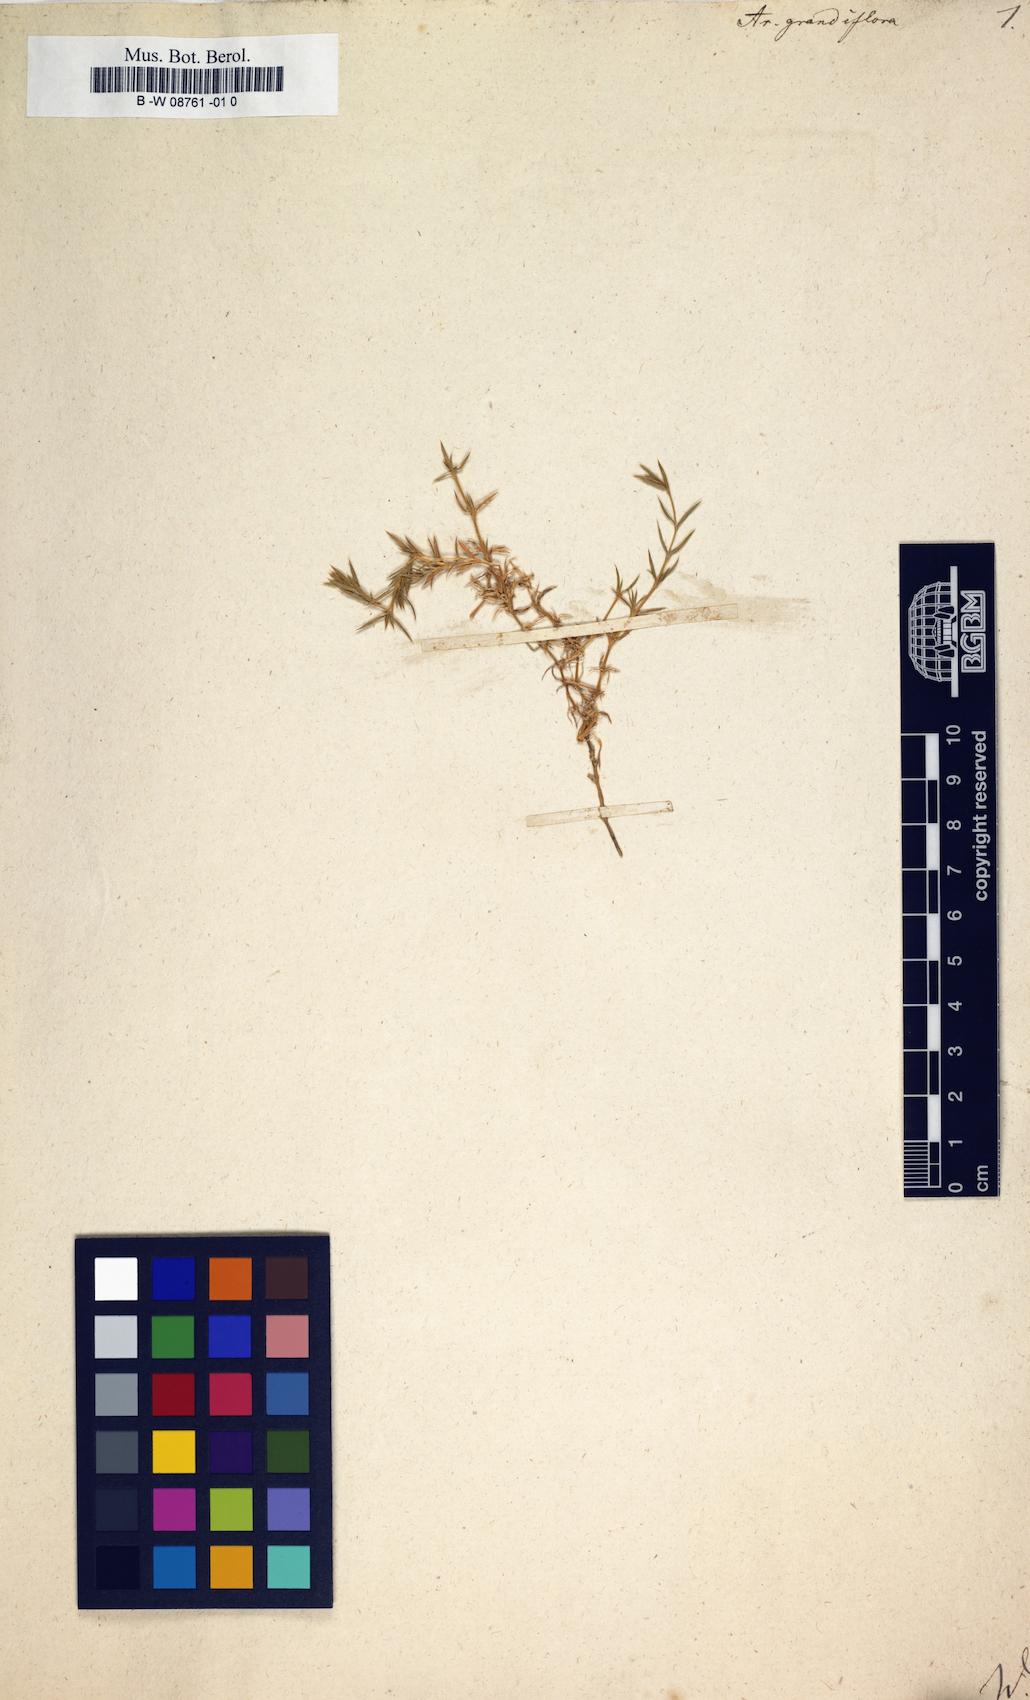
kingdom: Plantae
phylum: Tracheophyta
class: Magnoliopsida
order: Caryophyllales
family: Caryophyllaceae
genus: Arenaria
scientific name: Arenaria grandiflora
